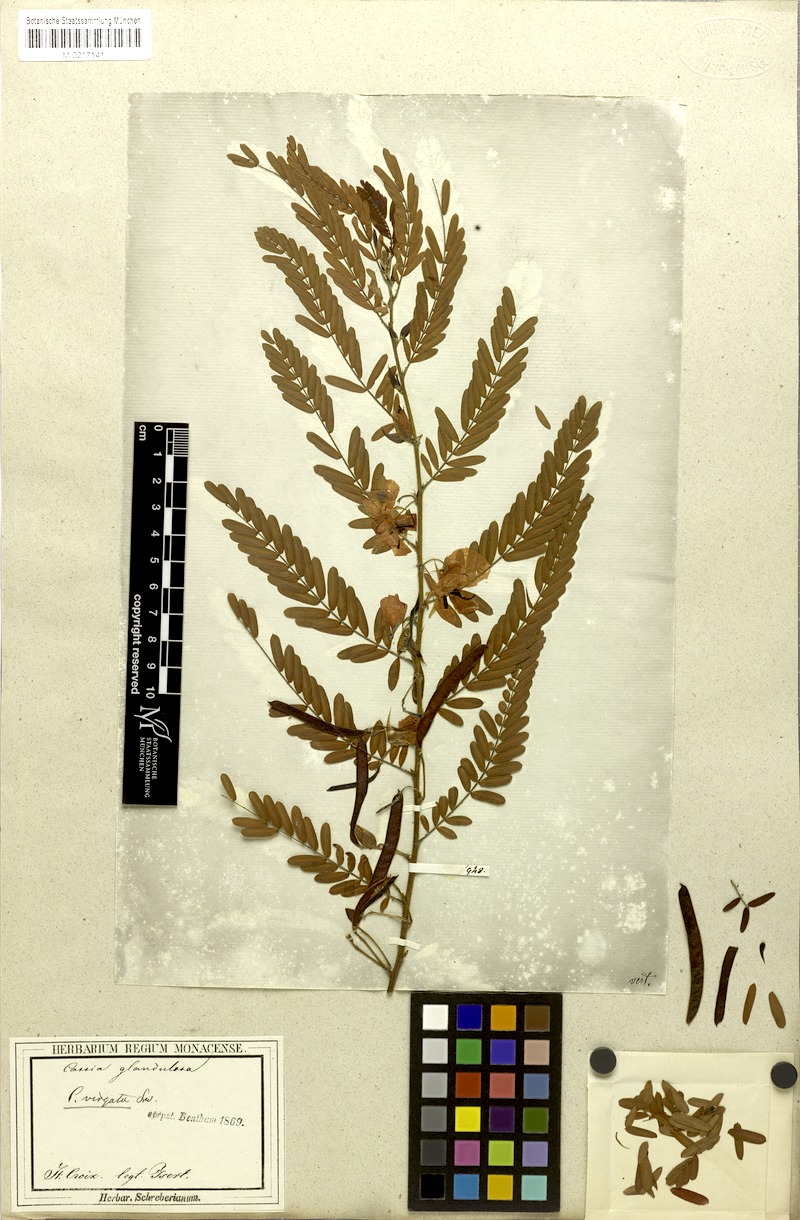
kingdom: Plantae
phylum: Tracheophyta
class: Magnoliopsida
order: Fabales
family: Fabaceae
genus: Chamaecrista
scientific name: Chamaecrista glandulosa
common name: Wild peas
